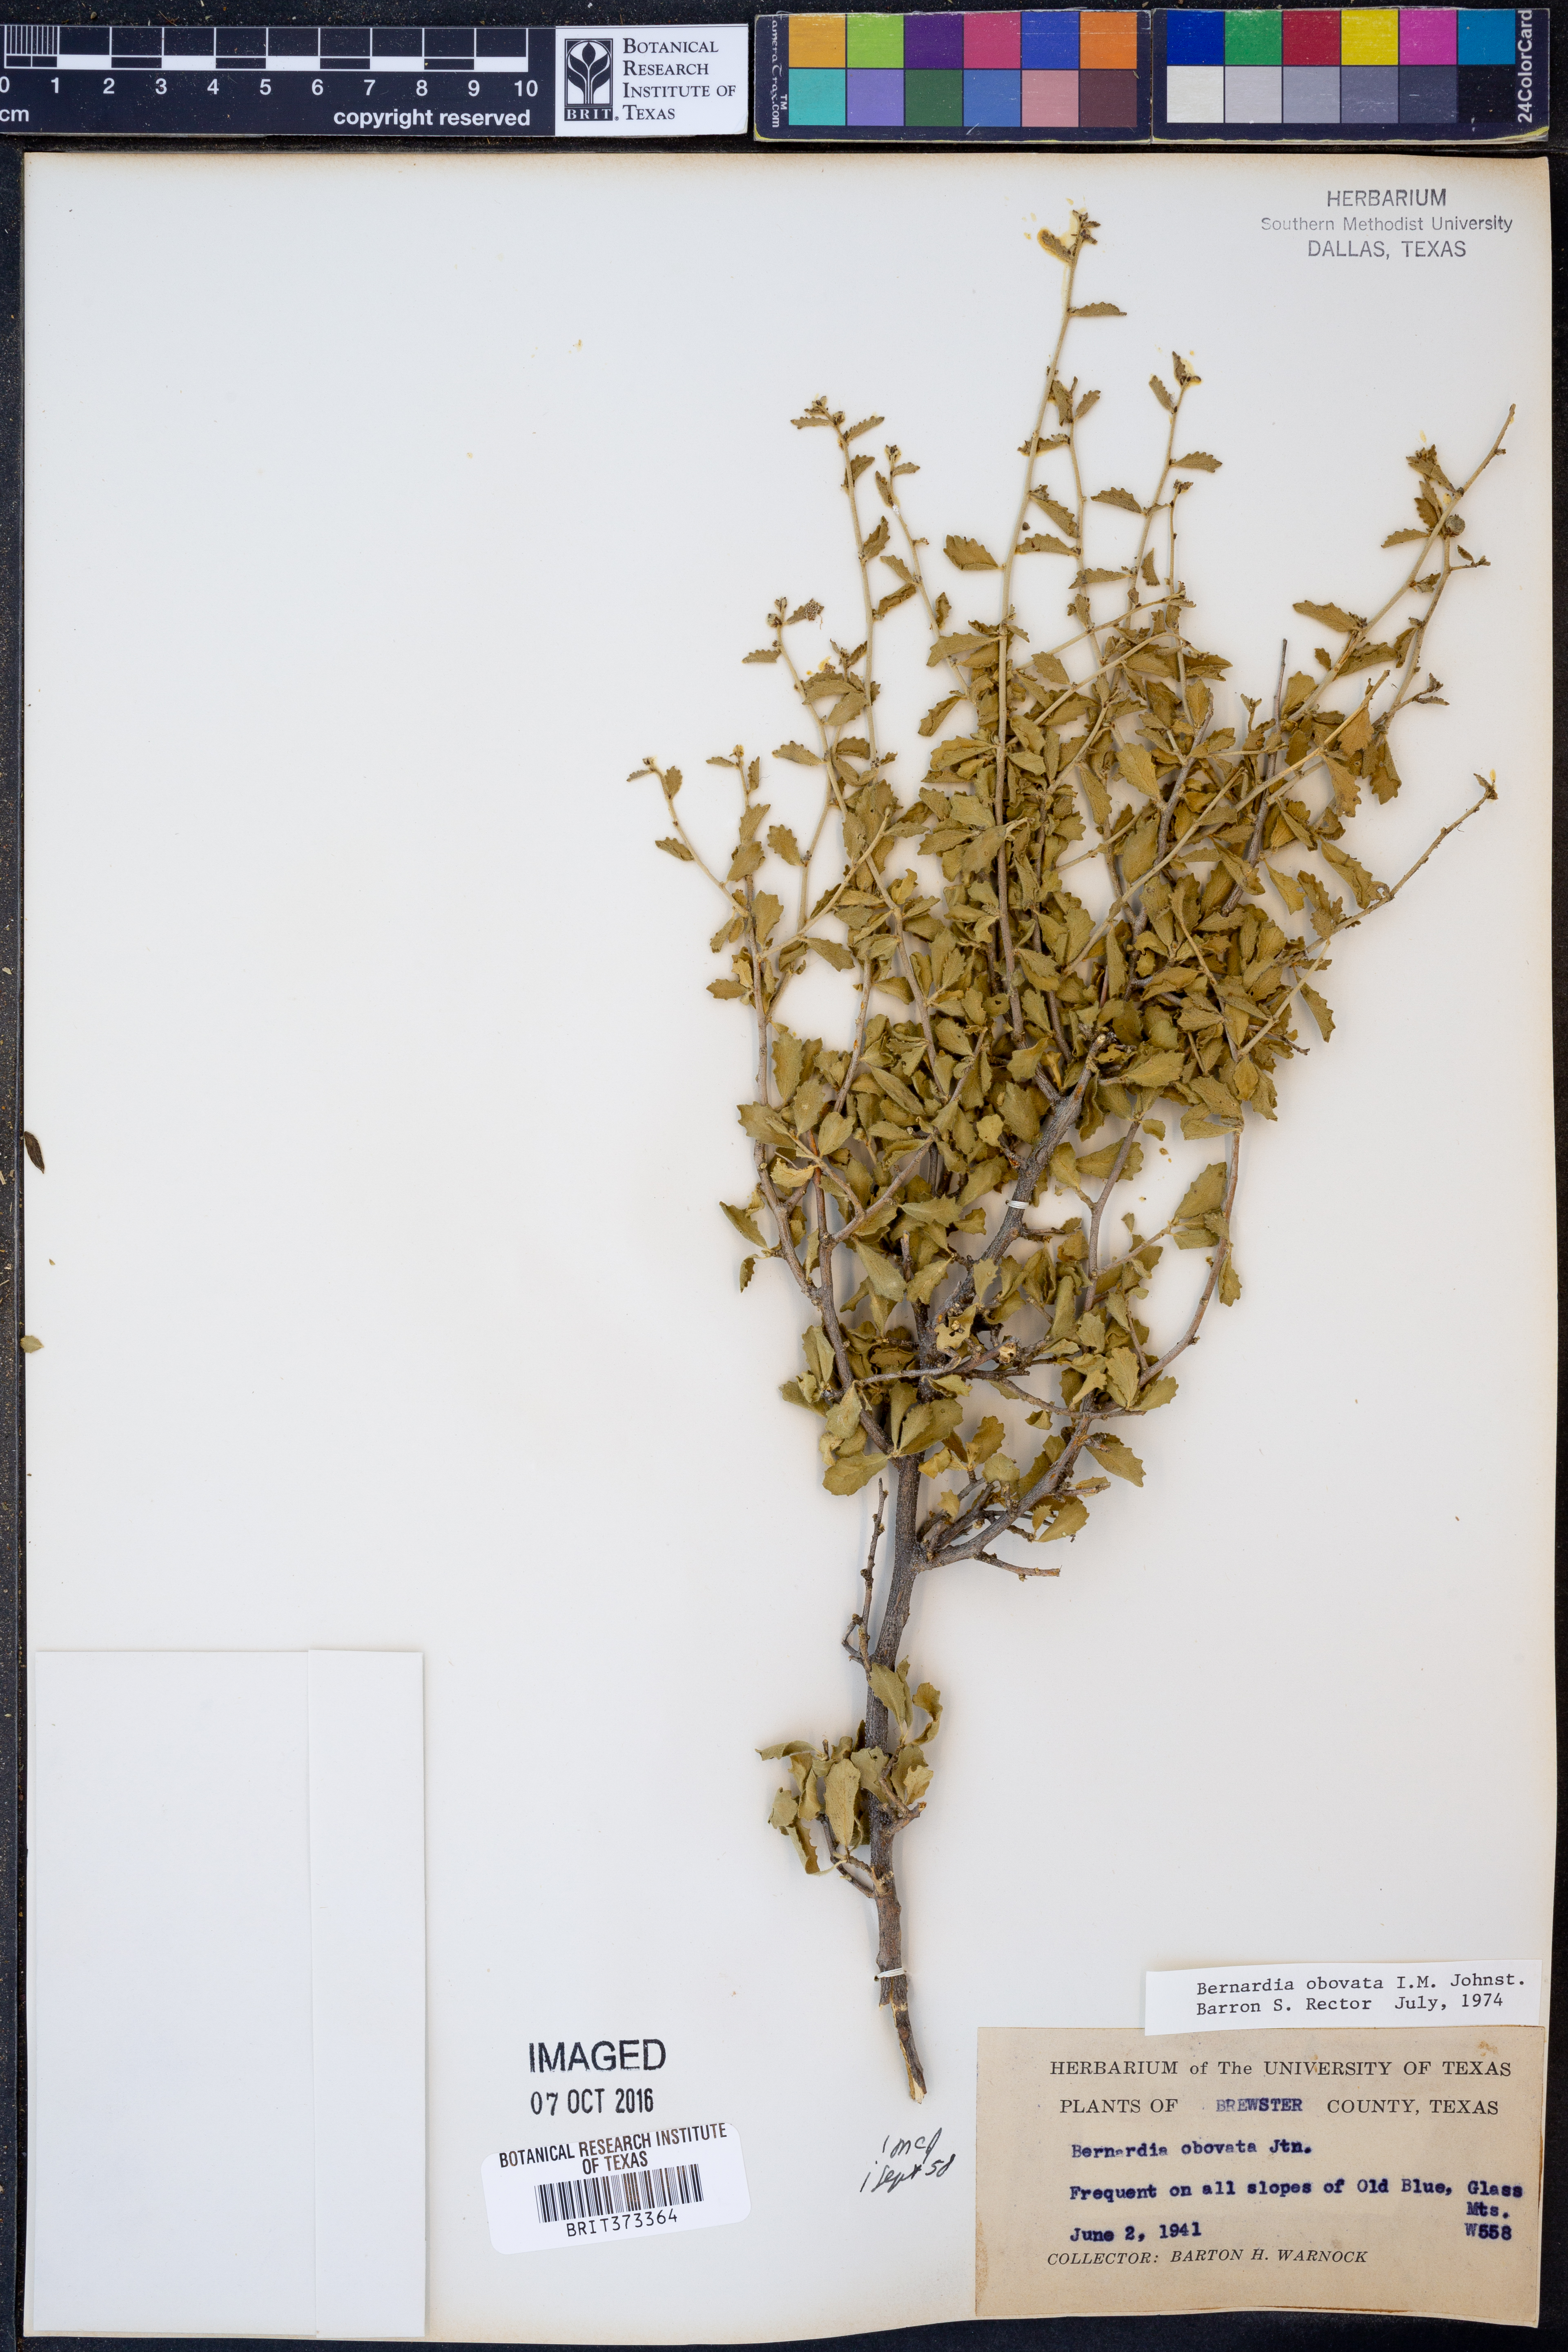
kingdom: Plantae
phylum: Tracheophyta
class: Magnoliopsida
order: Malpighiales
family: Euphorbiaceae
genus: Bernardia
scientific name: Bernardia obovata
